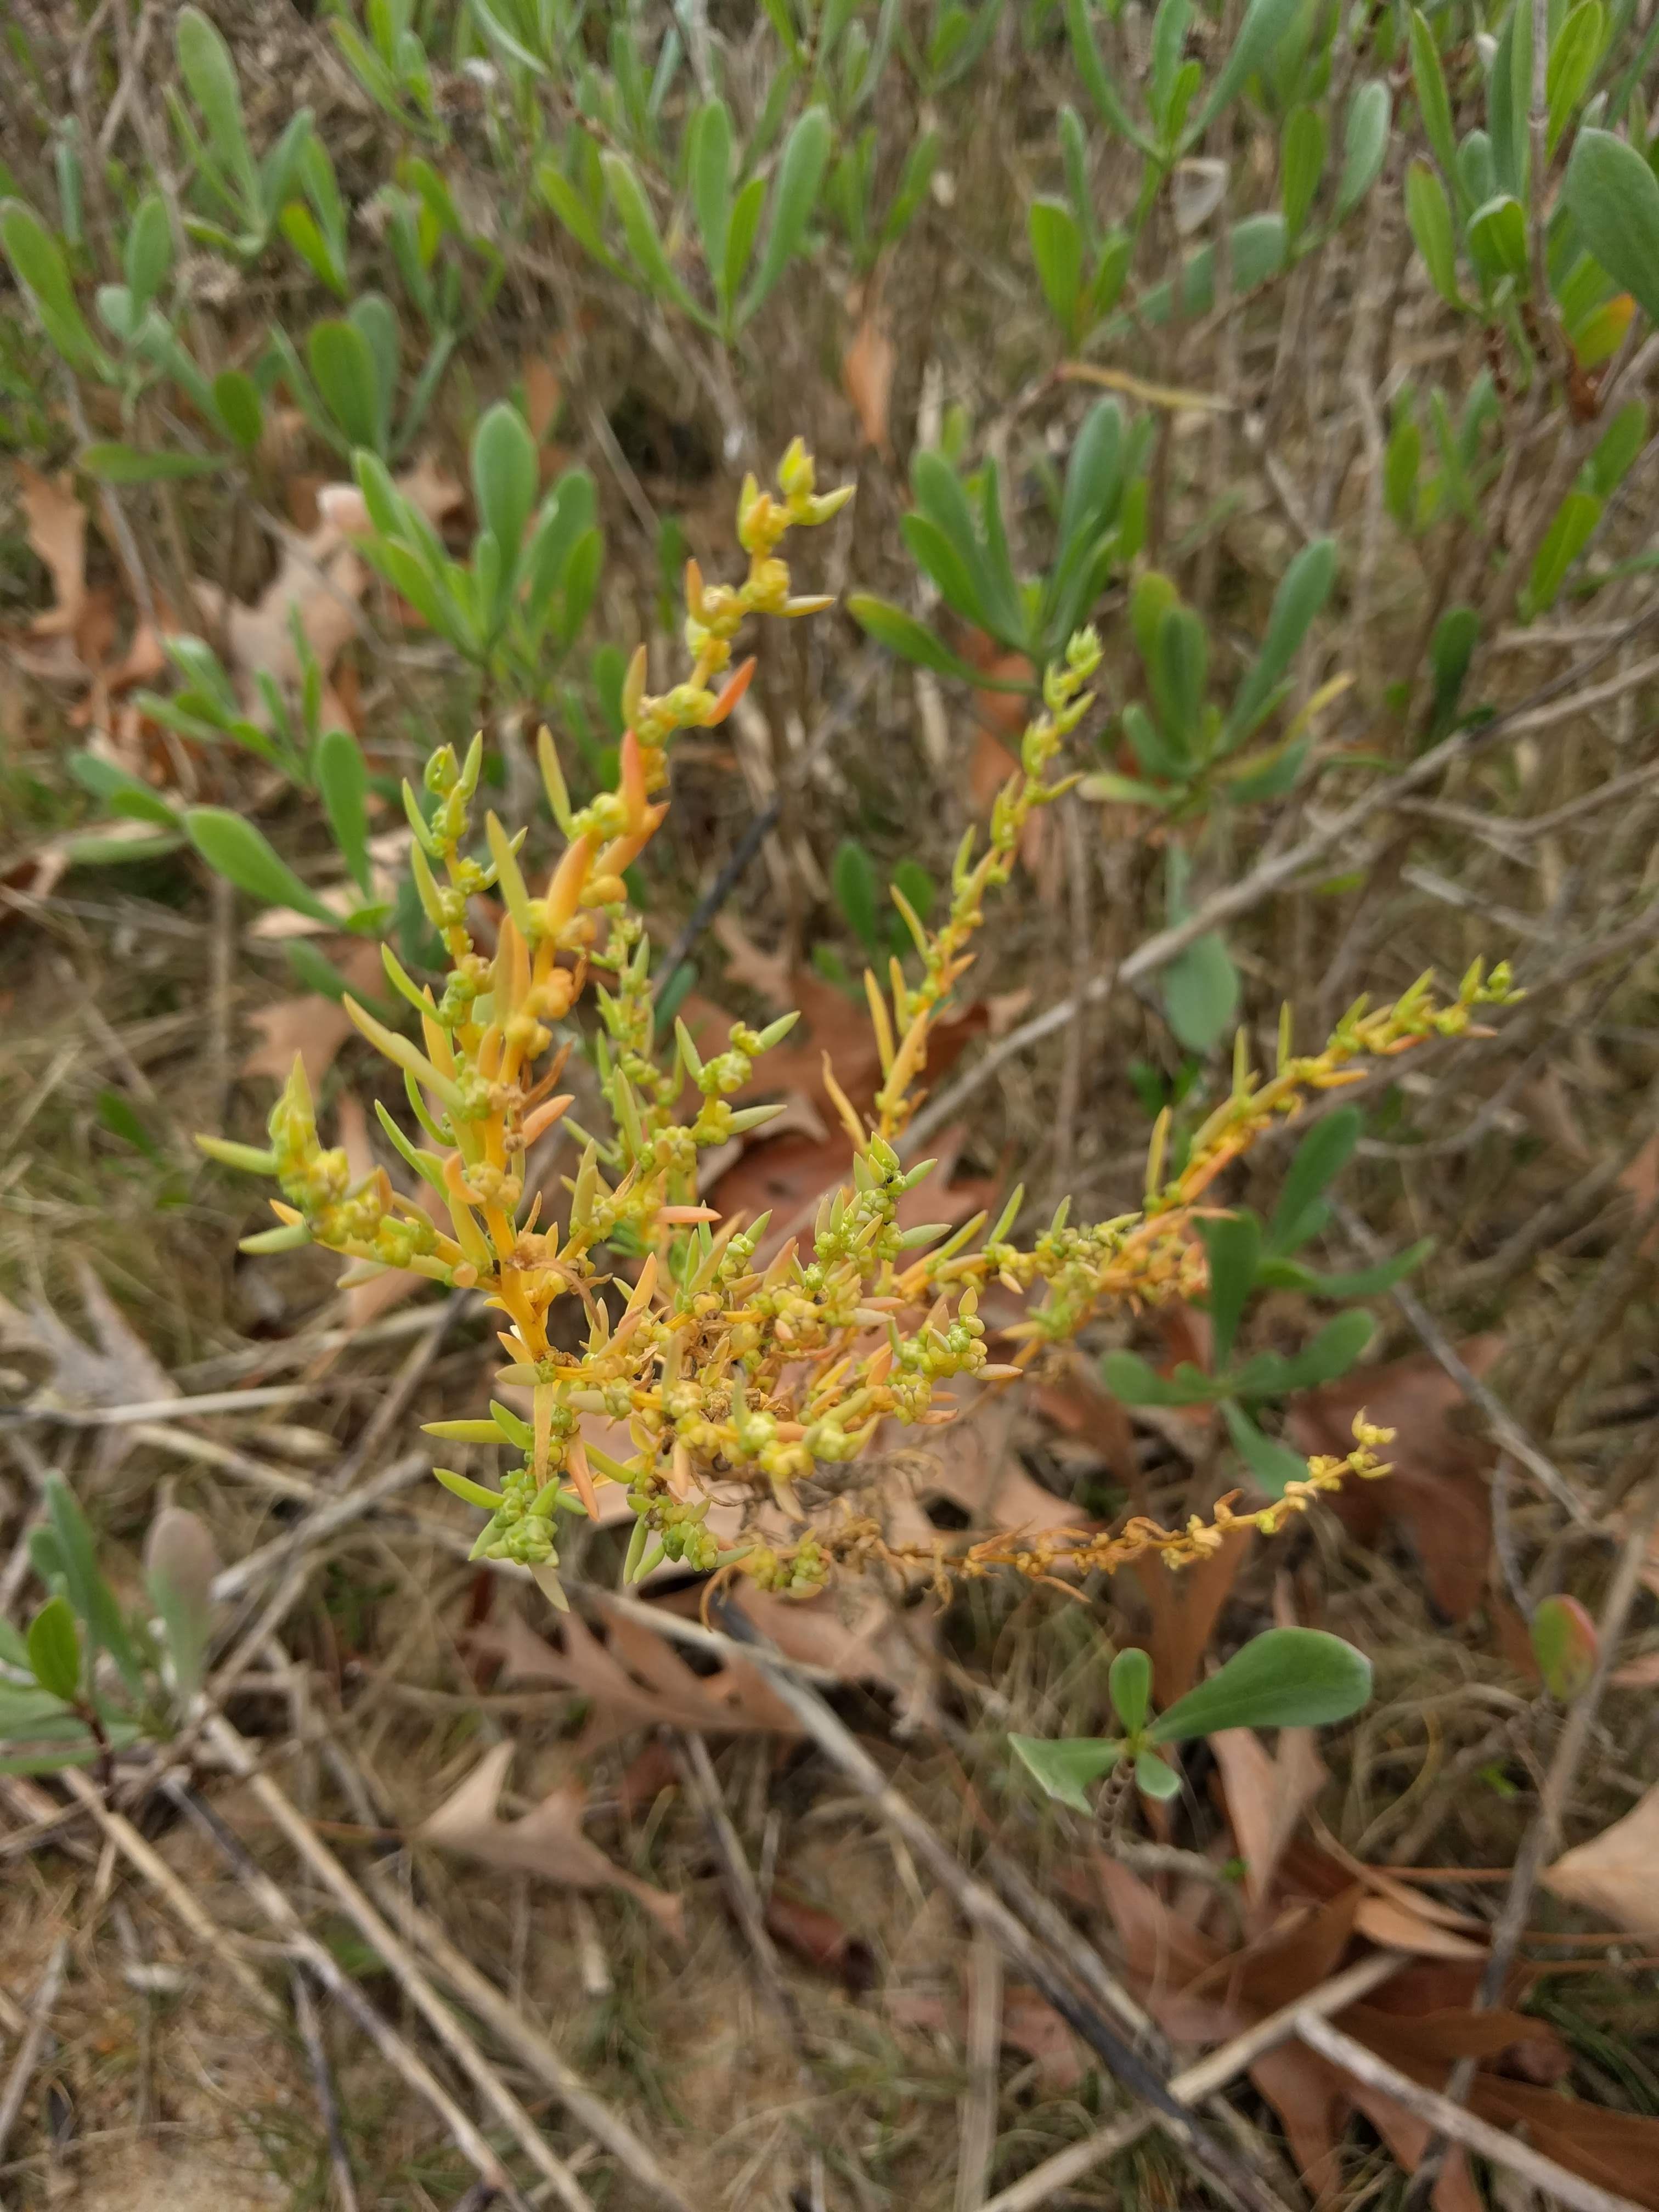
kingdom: Plantae
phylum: Tracheophyta
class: Magnoliopsida
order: Caryophyllales
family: Amaranthaceae
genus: Suaeda
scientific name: Suaeda linearis
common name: Annual seepweed
